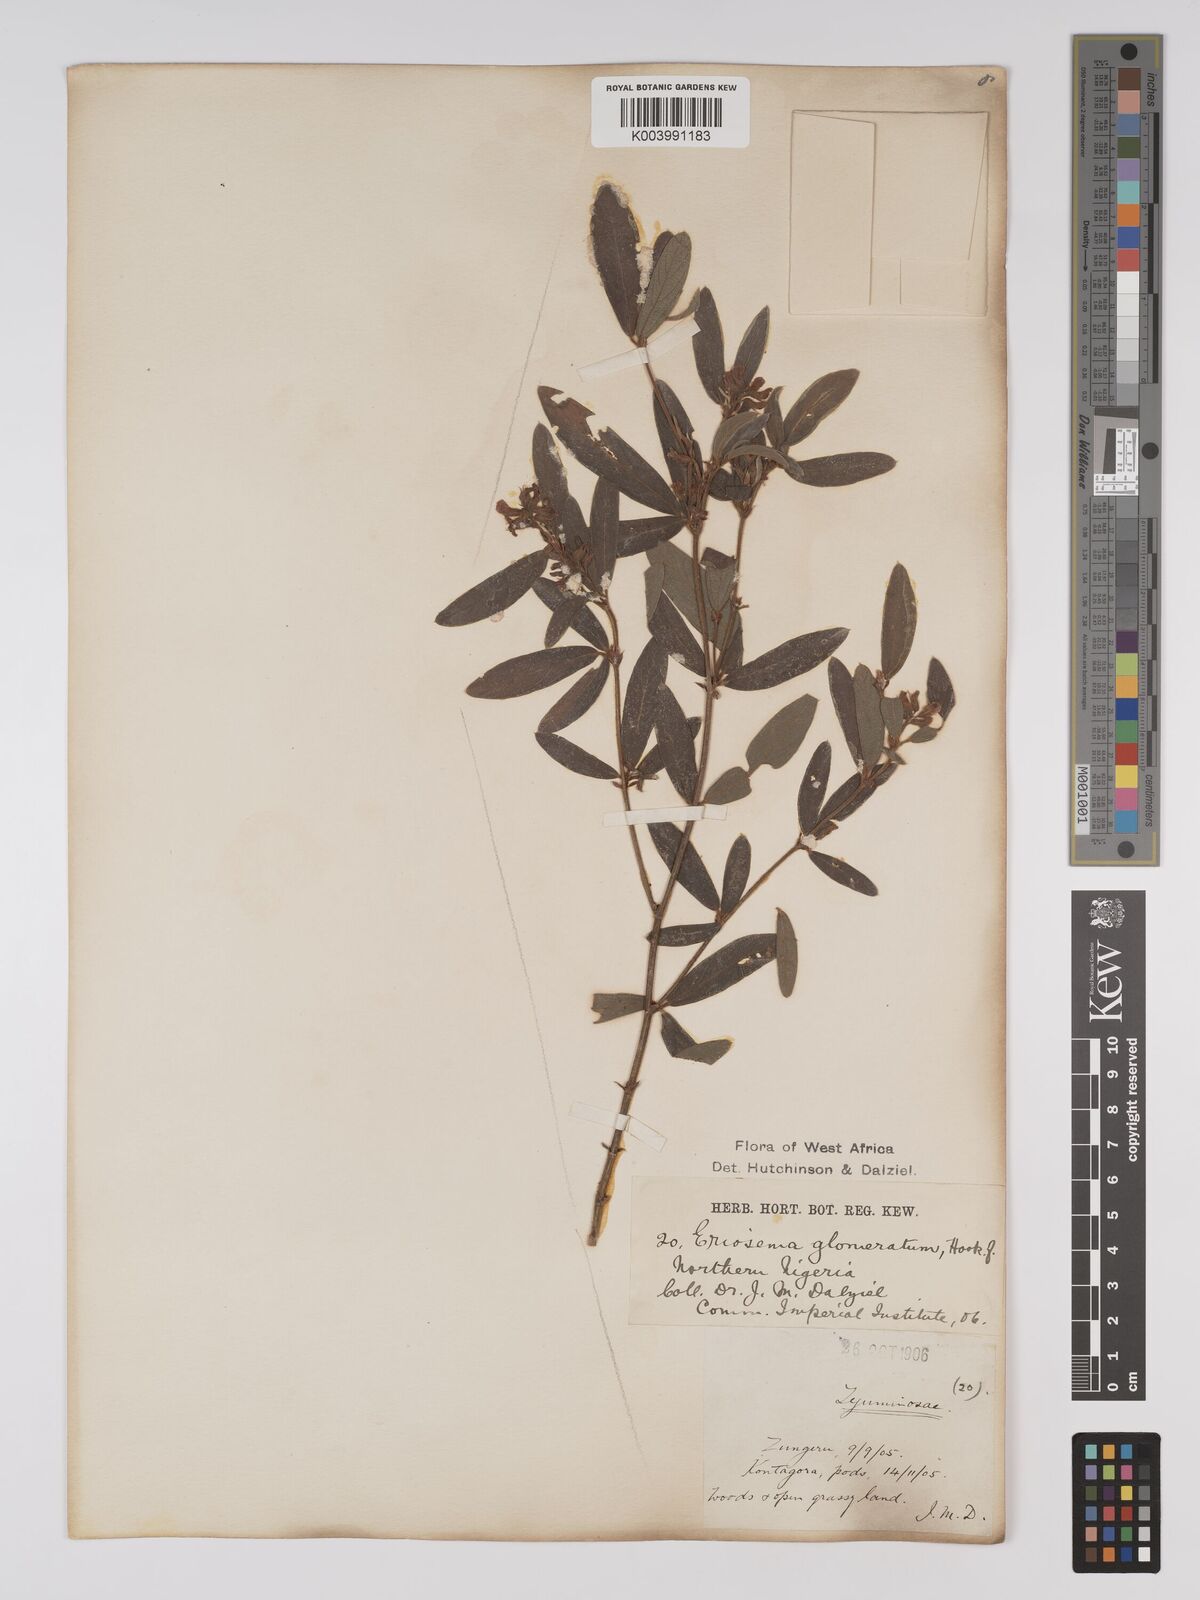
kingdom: Plantae
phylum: Tracheophyta
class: Magnoliopsida
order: Fabales
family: Fabaceae
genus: Eriosema
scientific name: Eriosema glomeratum
